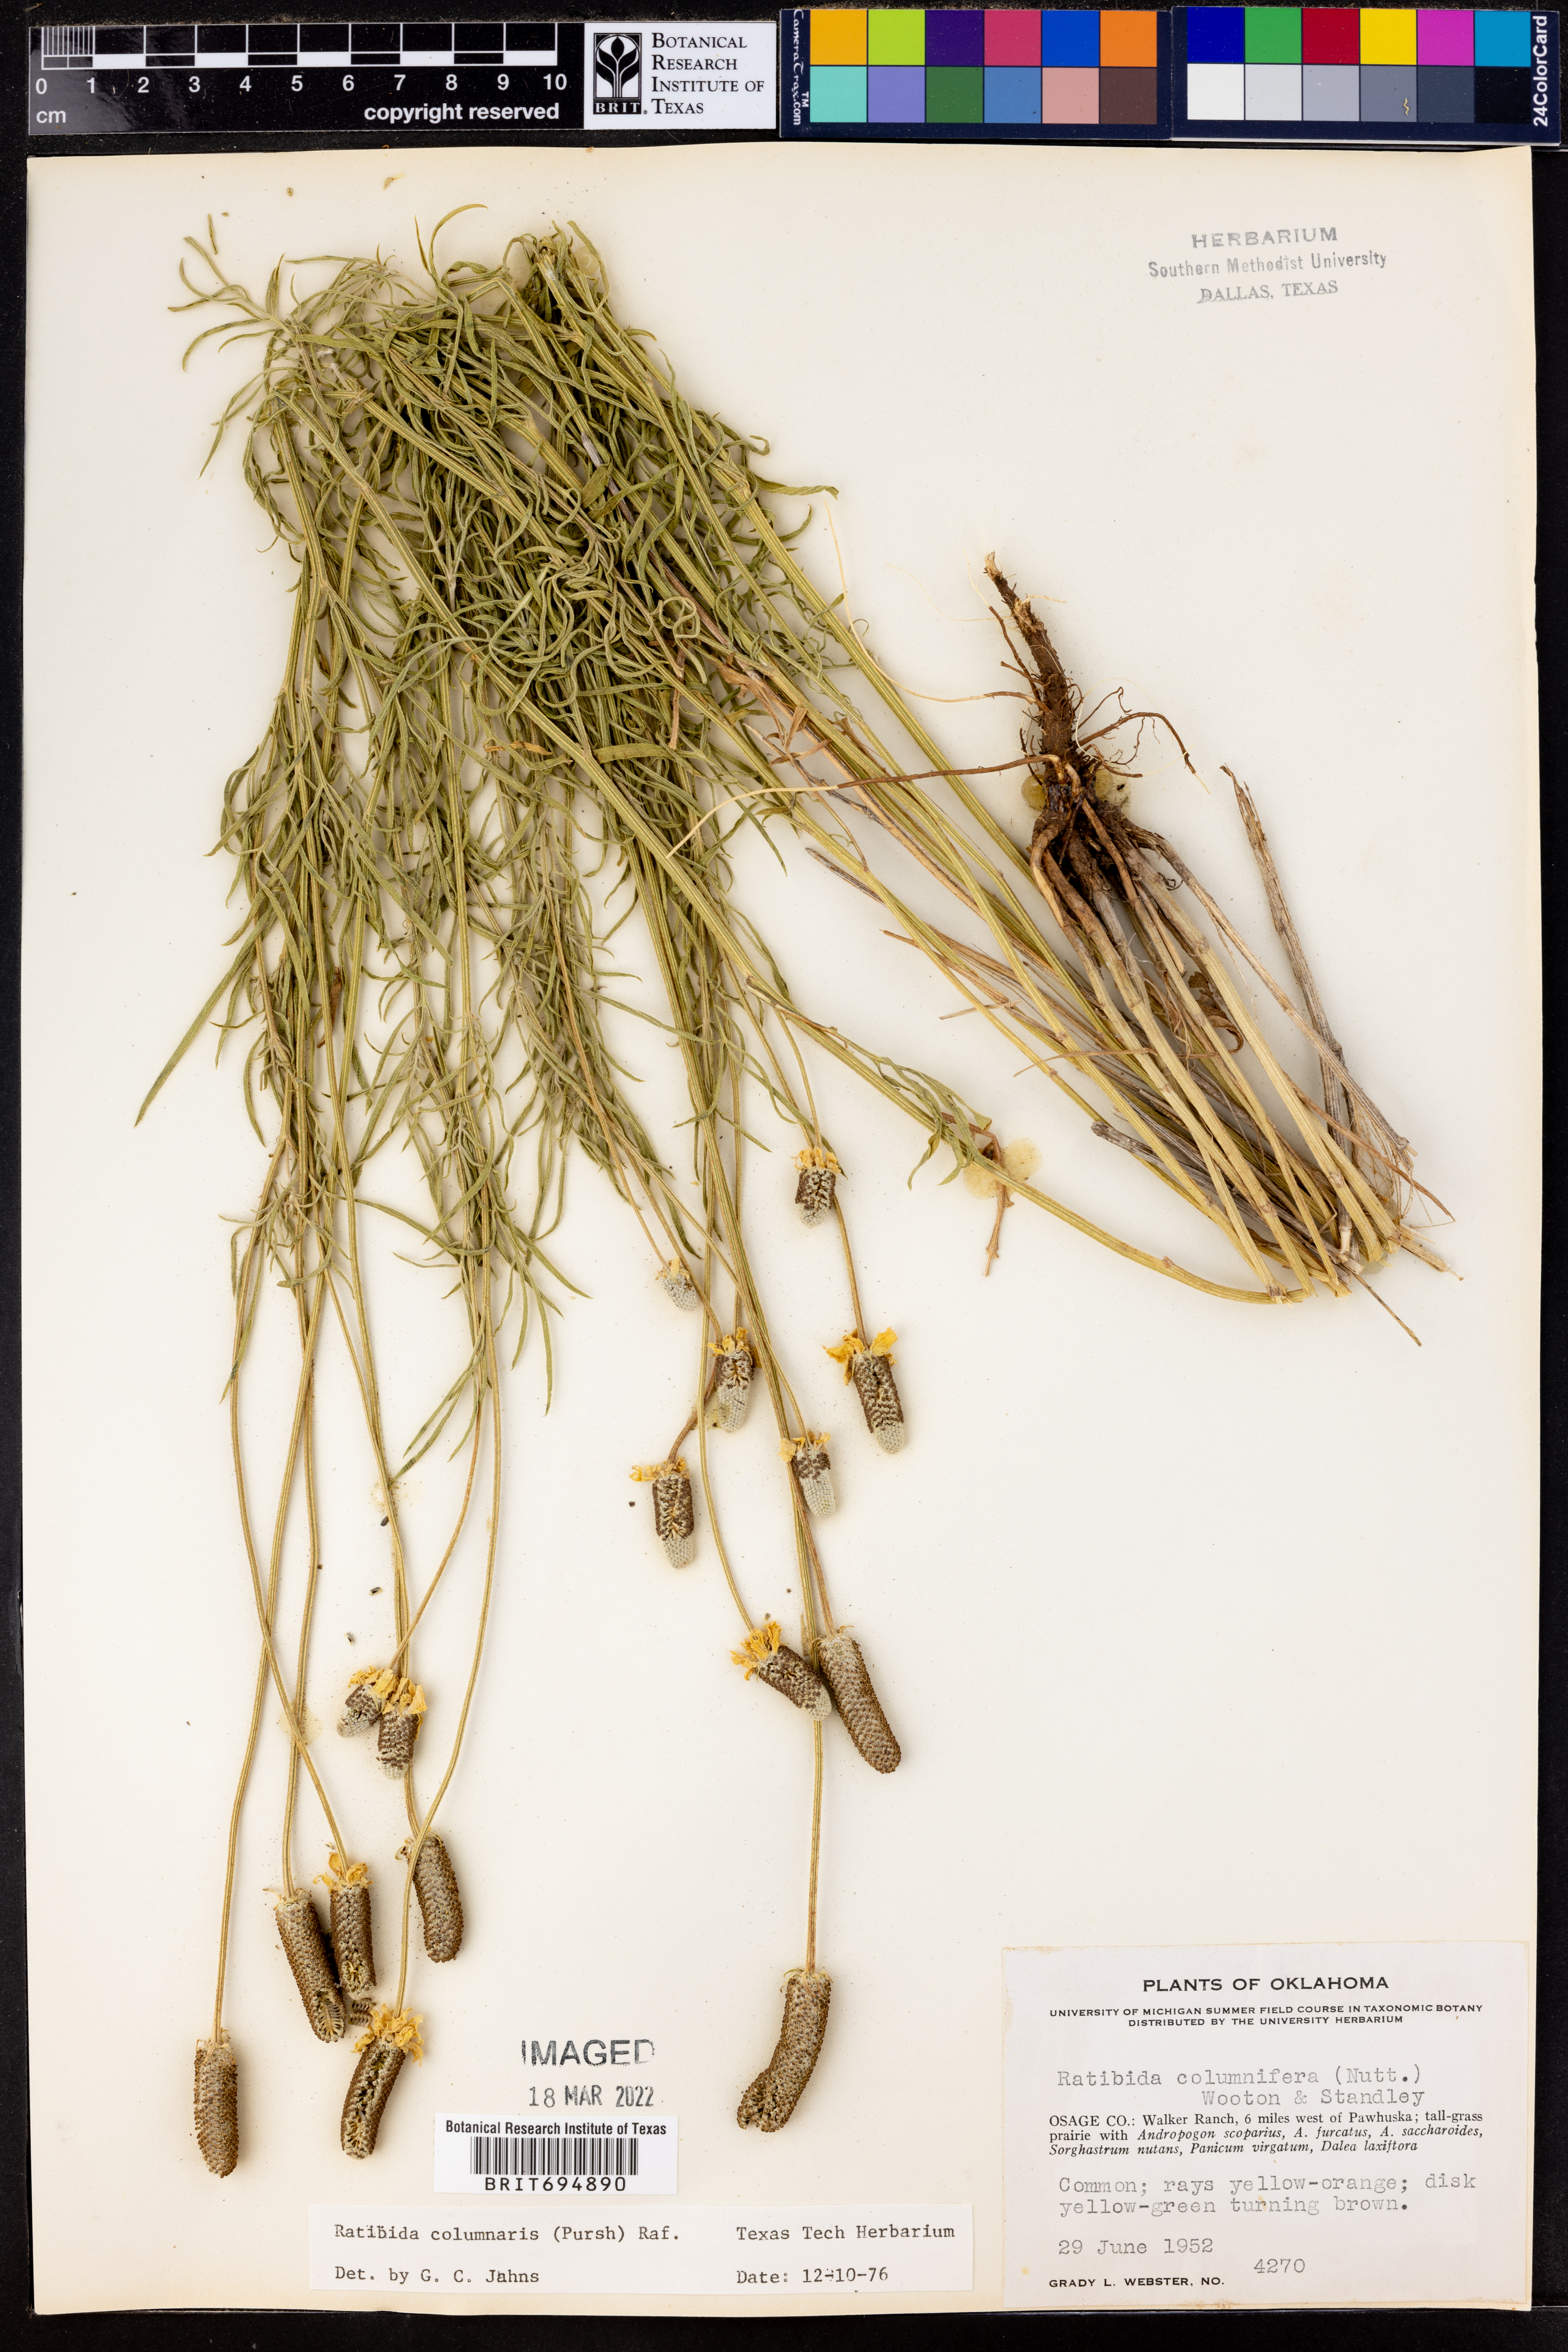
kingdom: Plantae
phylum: Tracheophyta
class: Magnoliopsida
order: Asterales
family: Asteraceae
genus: Ratibida
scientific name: Ratibida columnifera
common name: Prairie coneflower
